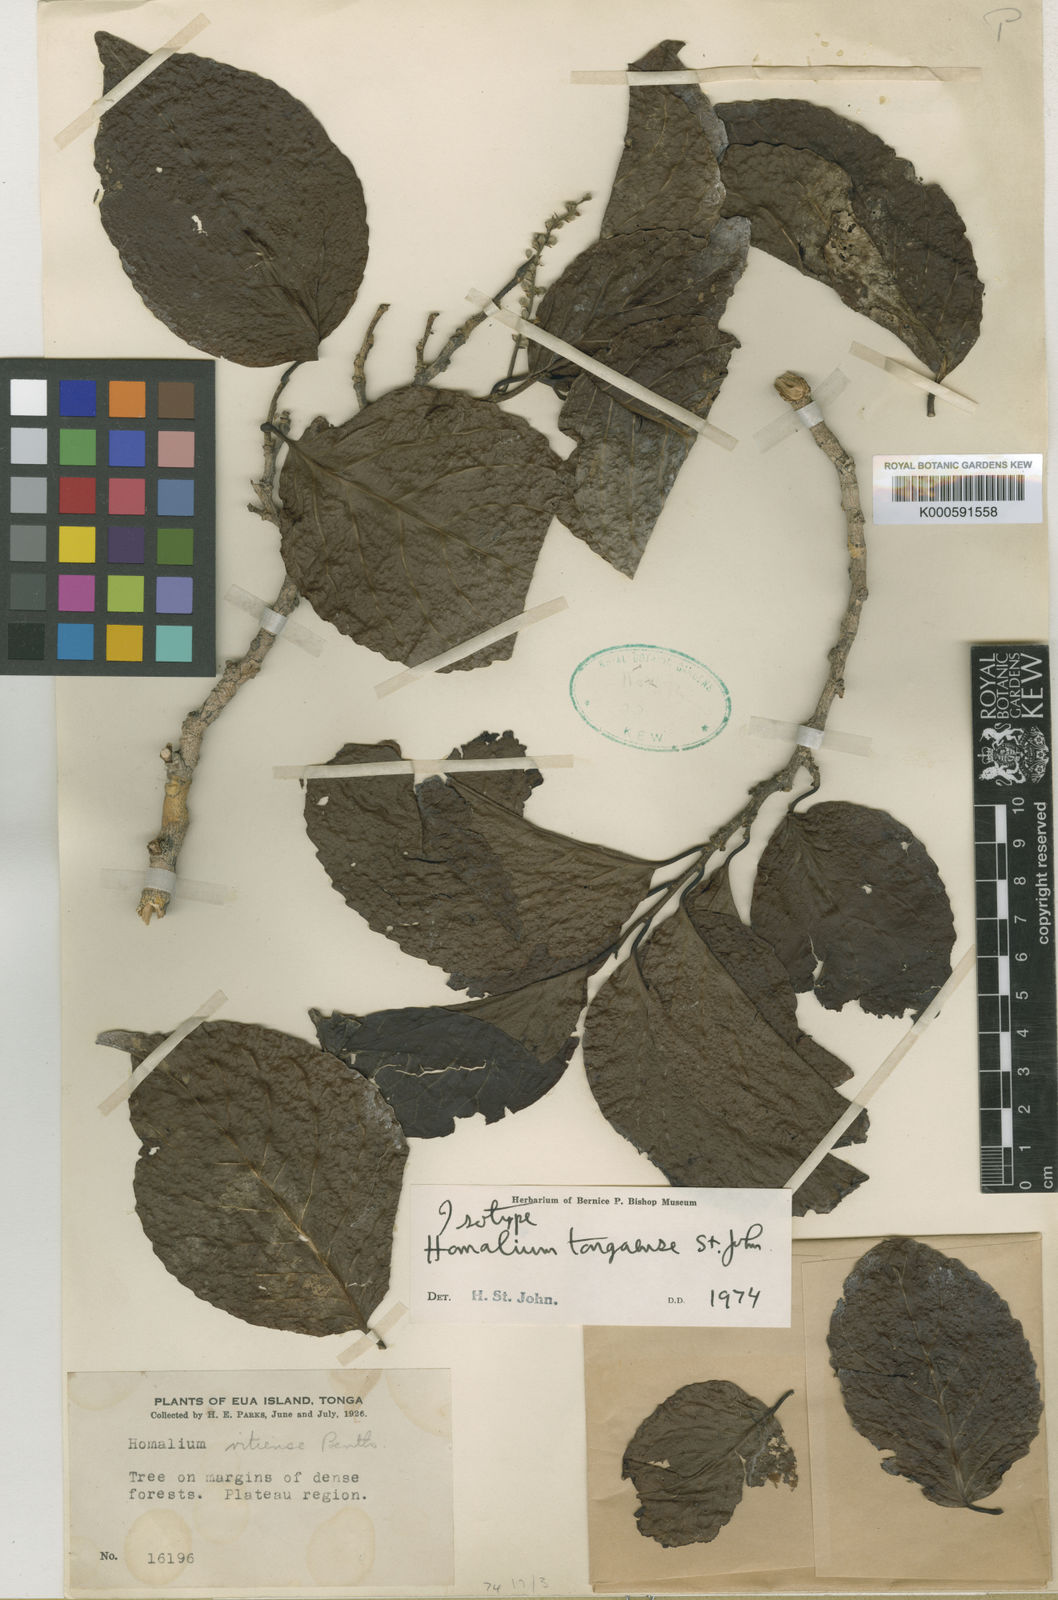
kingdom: Plantae
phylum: Tracheophyta
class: Magnoliopsida
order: Malpighiales
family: Salicaceae
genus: Homalium
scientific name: Homalium tongaense
